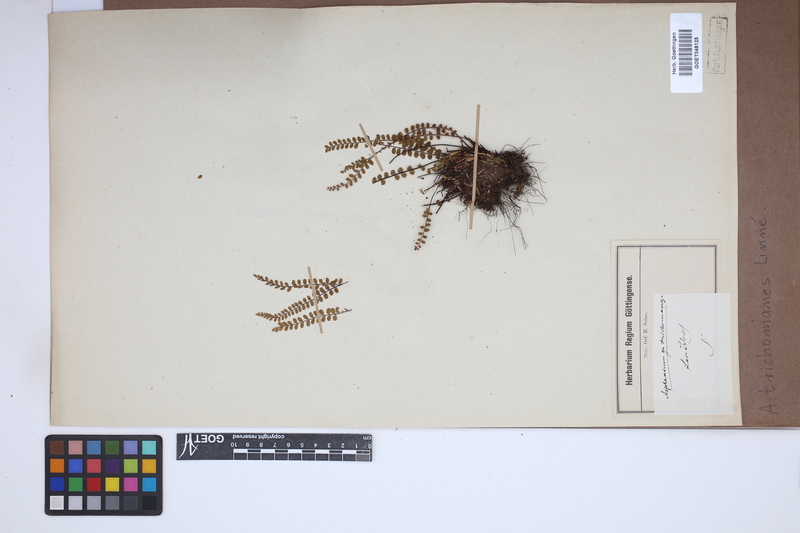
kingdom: Plantae
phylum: Tracheophyta
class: Polypodiopsida
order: Polypodiales
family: Aspleniaceae
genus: Asplenium
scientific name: Asplenium trichomanes
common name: Maidenhair spleenwort
